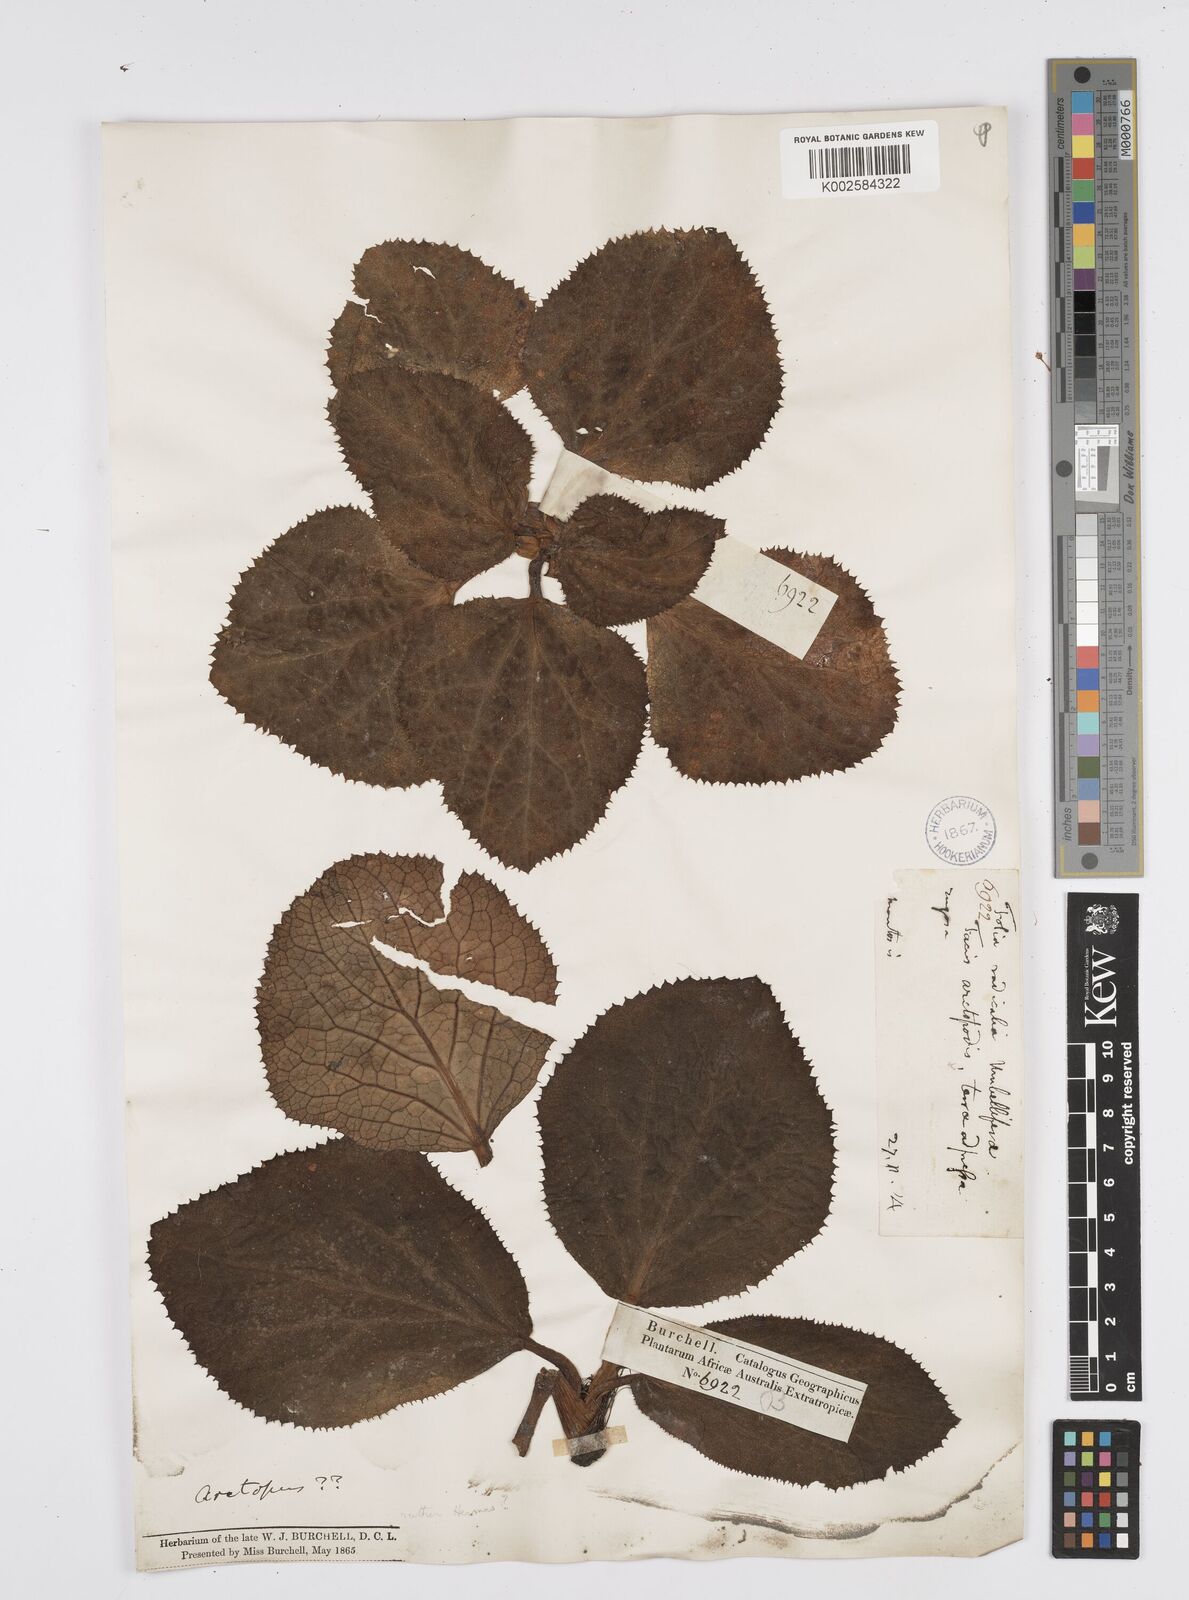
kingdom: Plantae
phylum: Tracheophyta
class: Magnoliopsida
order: Apiales
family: Apiaceae
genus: Arctopus
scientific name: Arctopus
